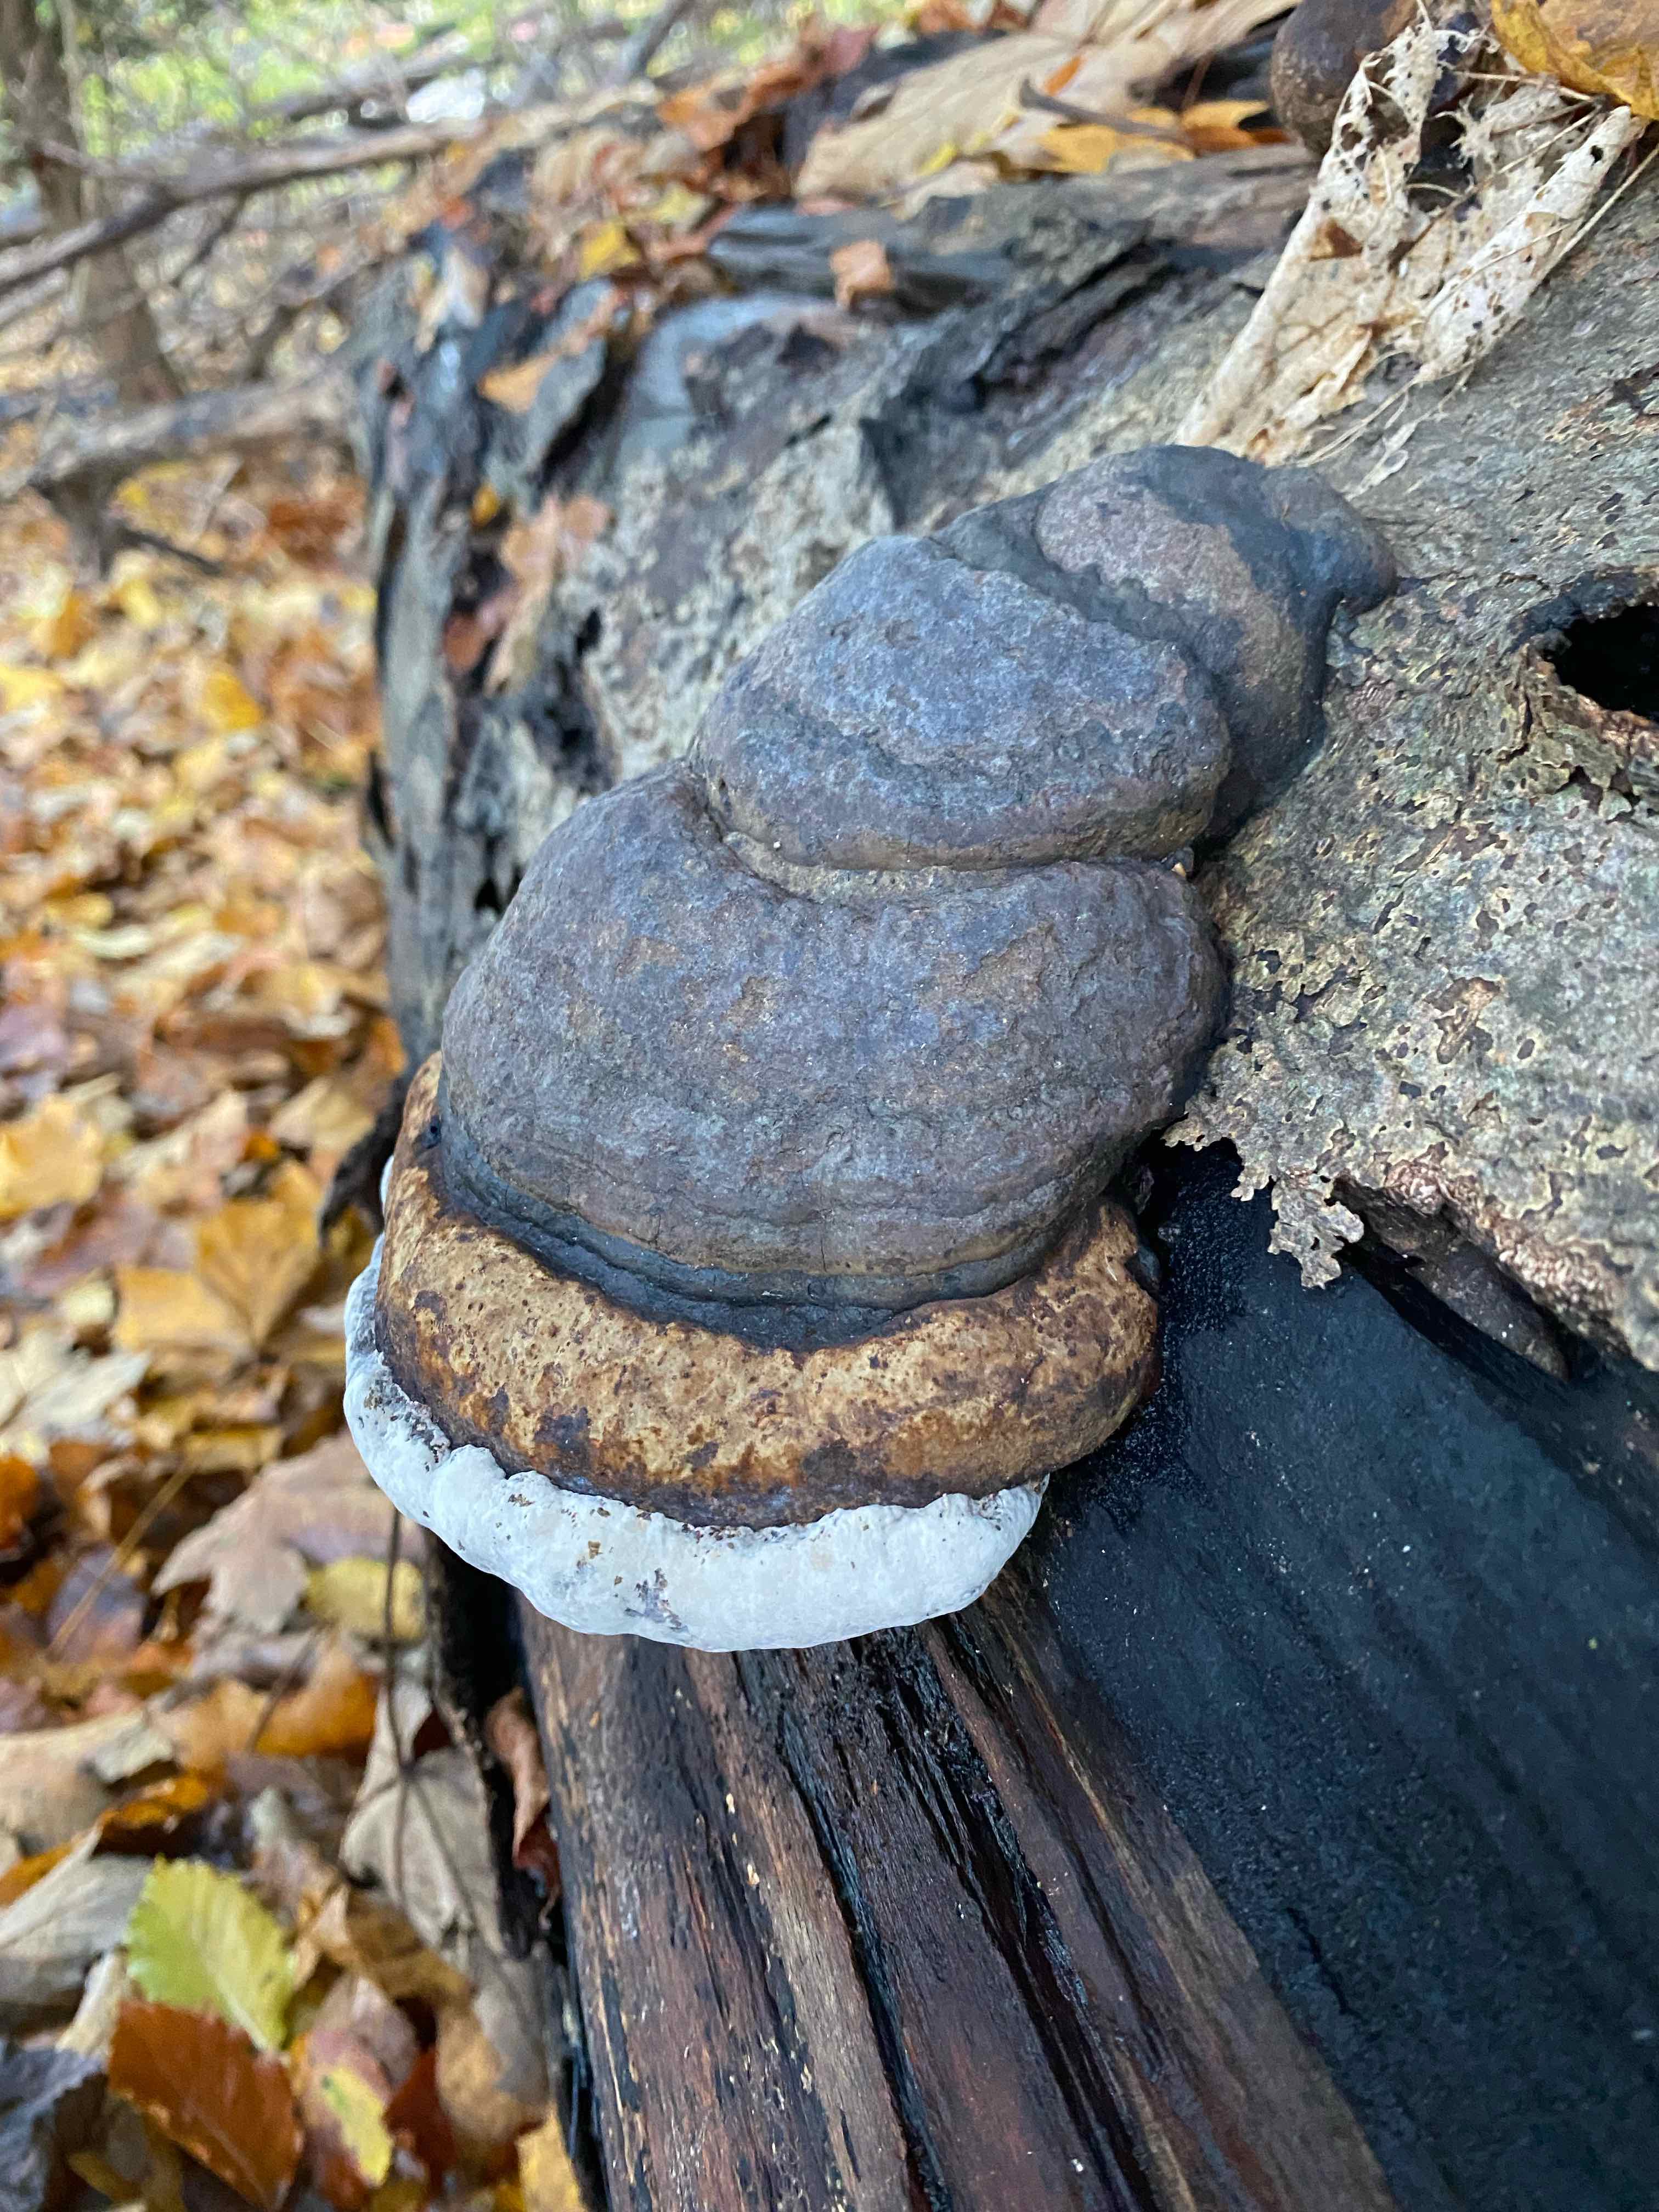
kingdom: Fungi
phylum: Basidiomycota
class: Agaricomycetes
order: Polyporales
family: Polyporaceae
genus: Fomes
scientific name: Fomes fomentarius
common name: tøndersvamp
